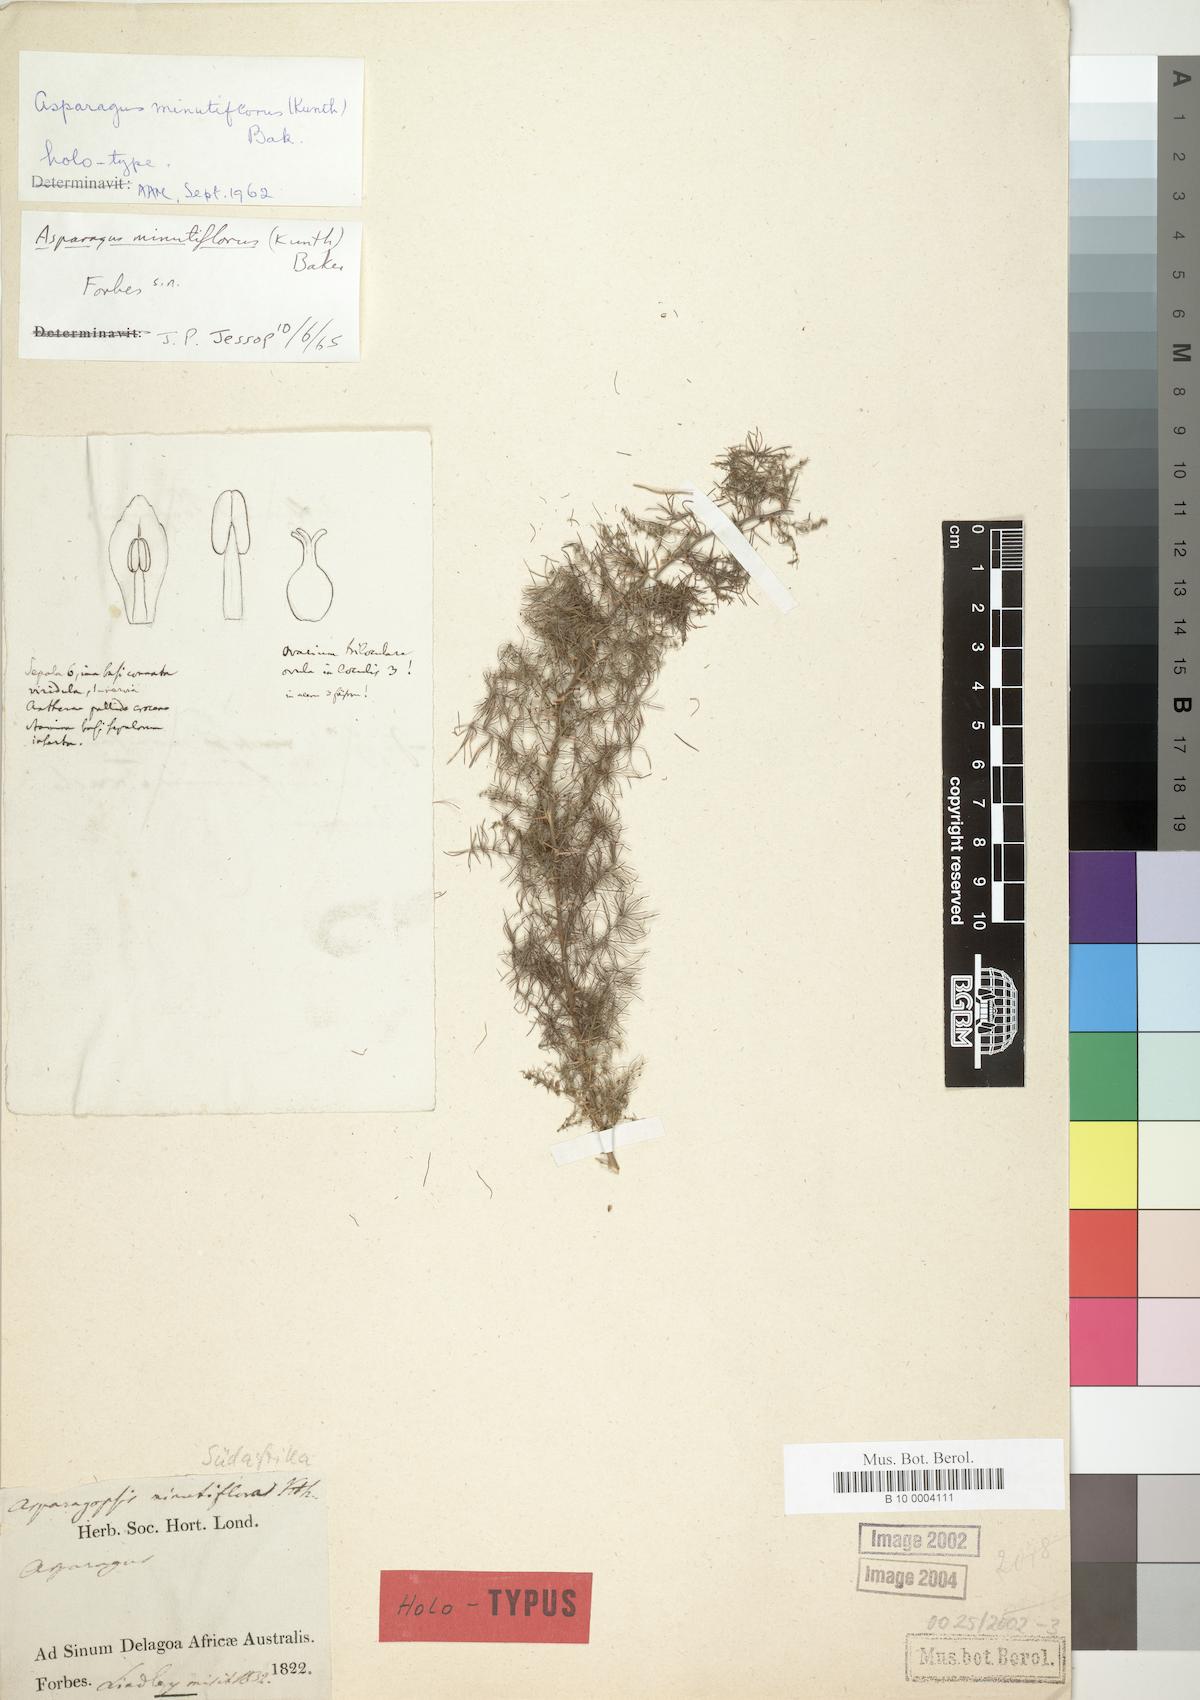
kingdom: Plantae
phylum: Tracheophyta
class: Liliopsida
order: Asparagales
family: Asparagaceae
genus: Asparagus
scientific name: Asparagus minutiflorus
